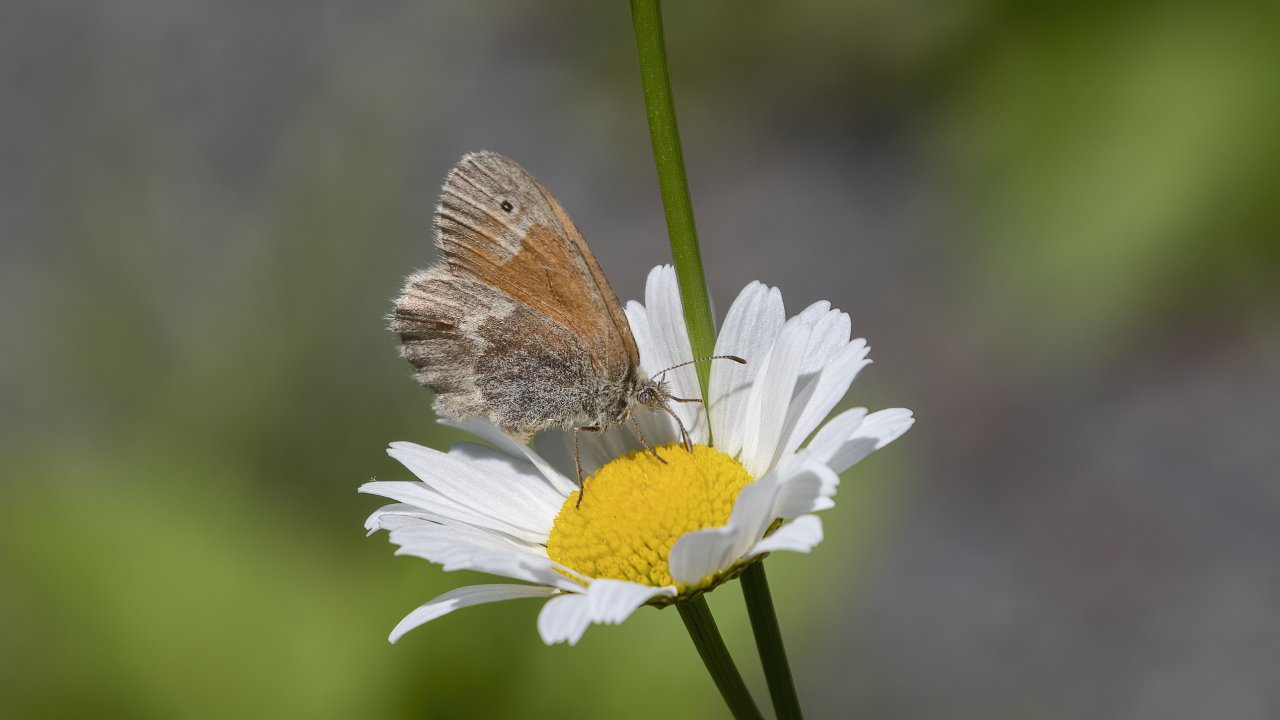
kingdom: Animalia
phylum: Arthropoda
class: Insecta
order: Lepidoptera
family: Nymphalidae
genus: Coenonympha
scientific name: Coenonympha tullia
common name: Large Heath
